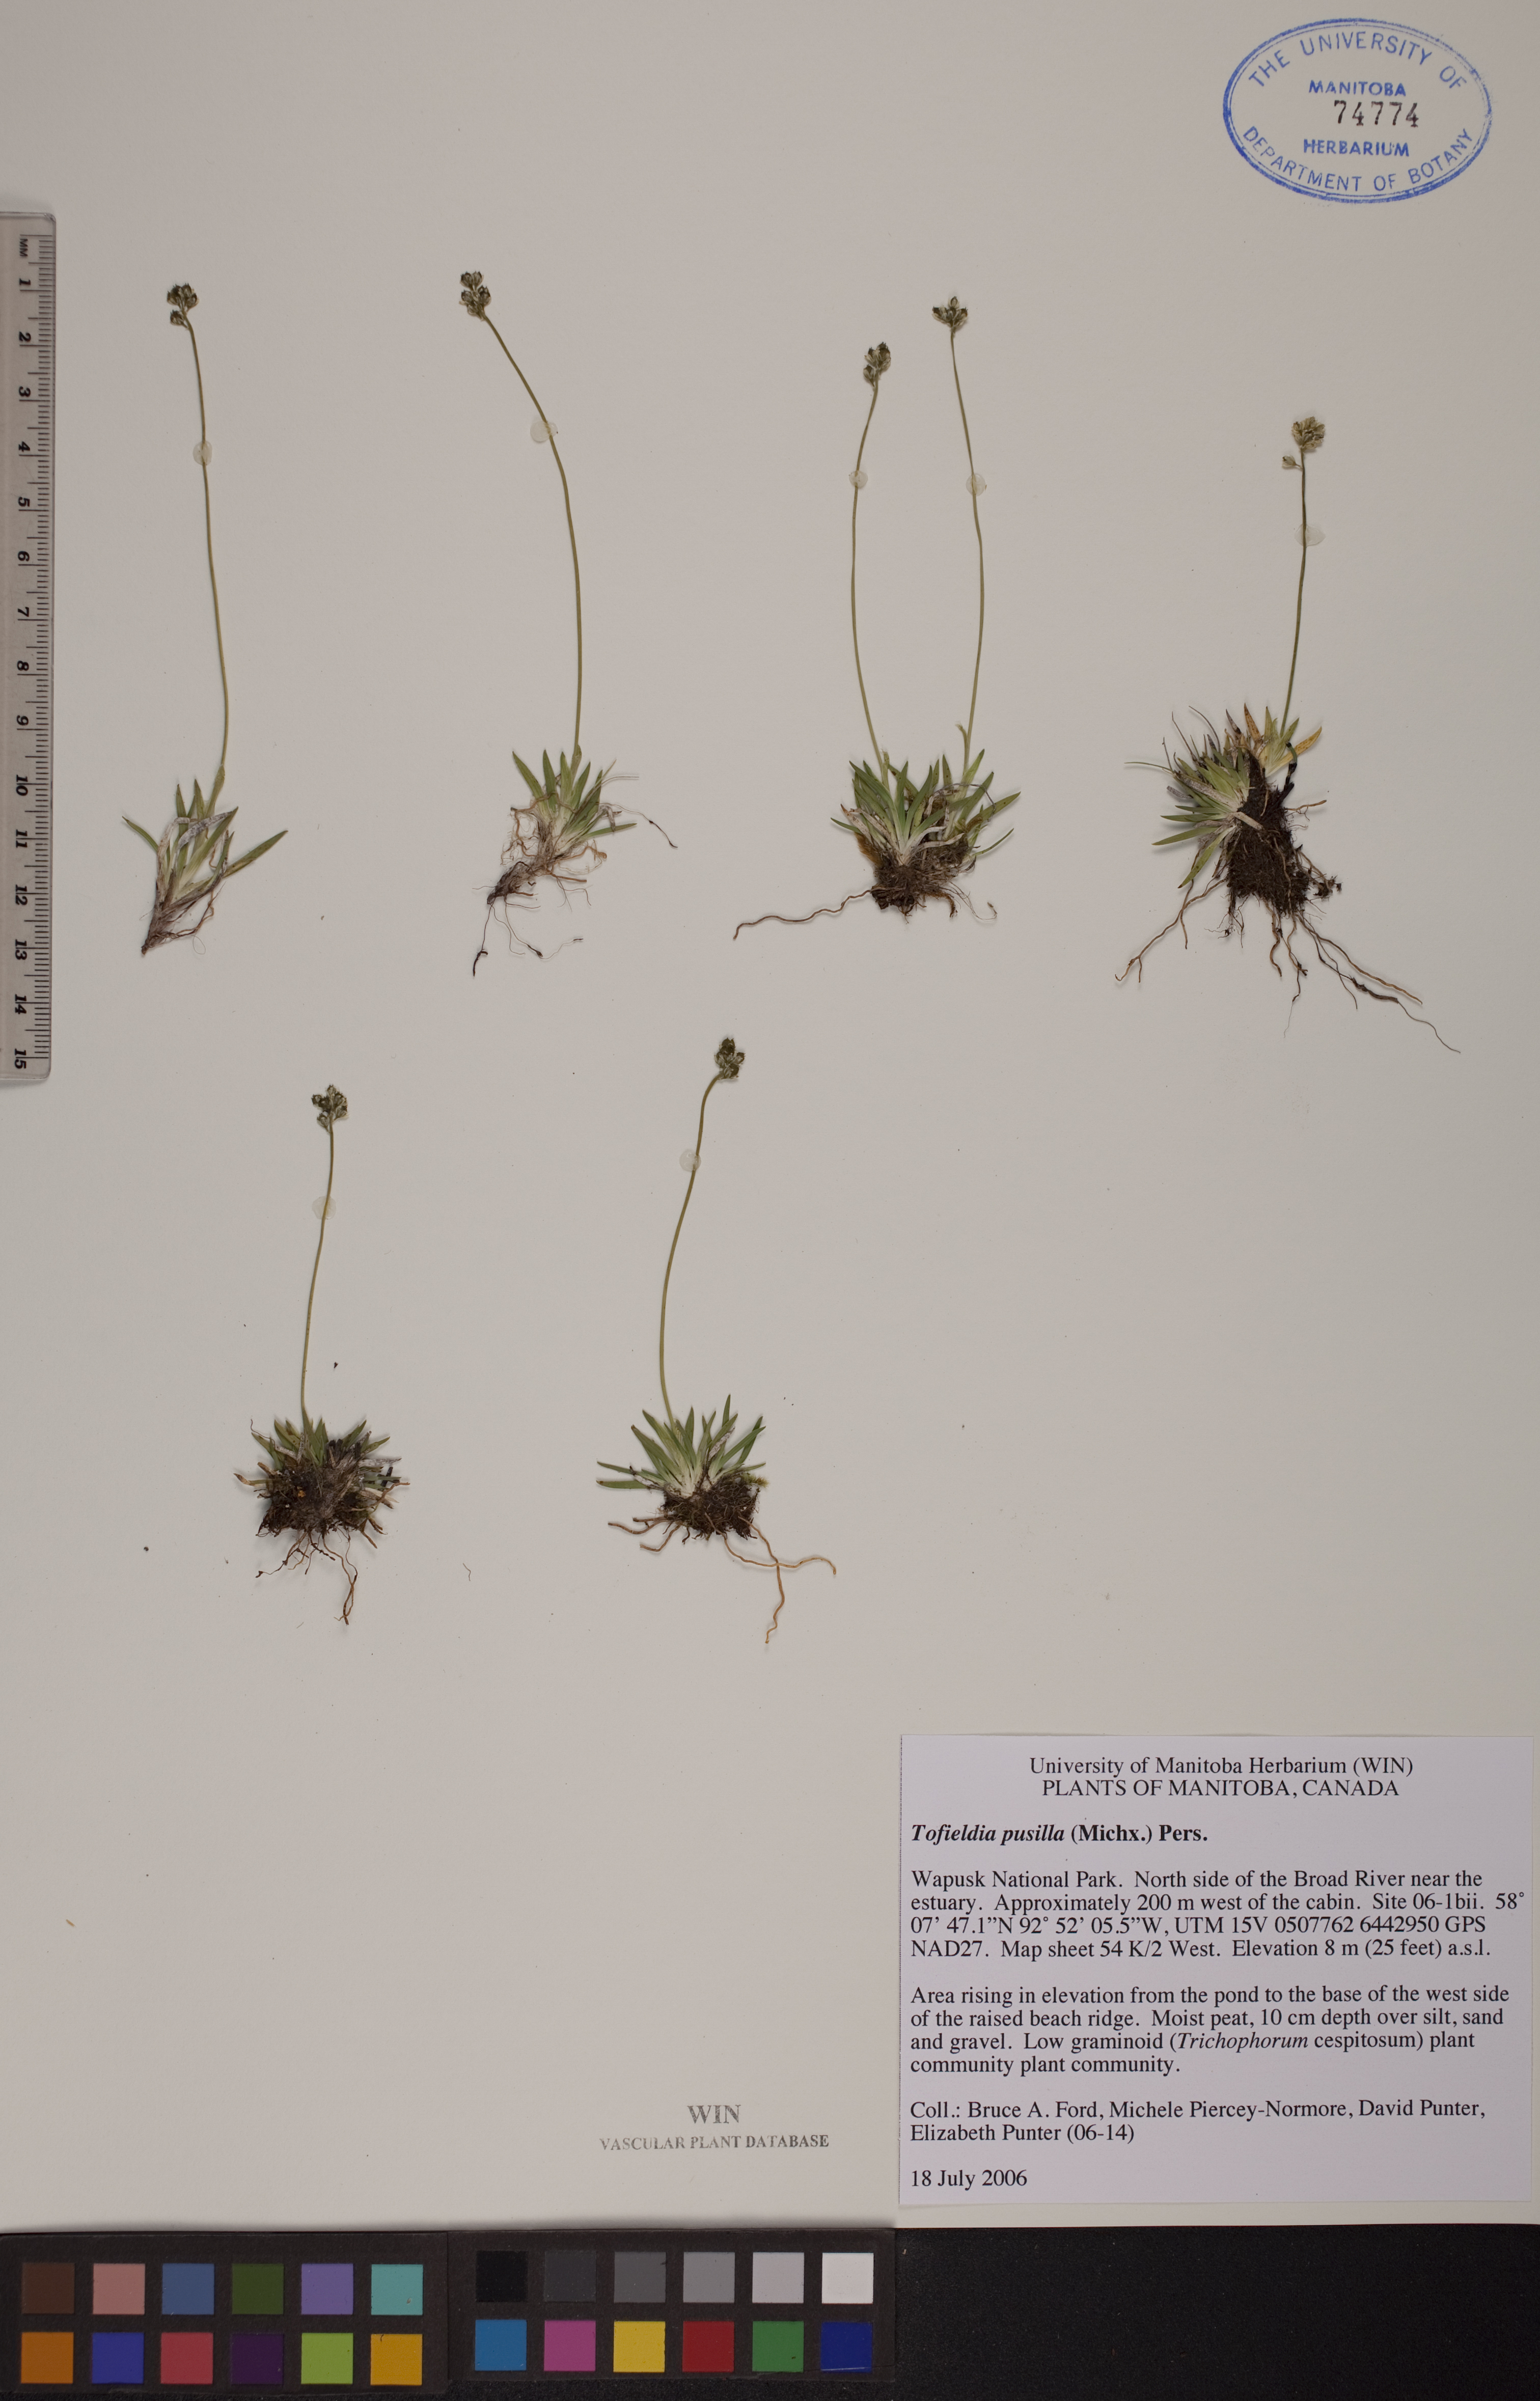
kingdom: Plantae
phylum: Tracheophyta
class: Liliopsida
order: Alismatales
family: Tofieldiaceae
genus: Tofieldia
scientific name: Tofieldia pusilla
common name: Scottish false asphodel
